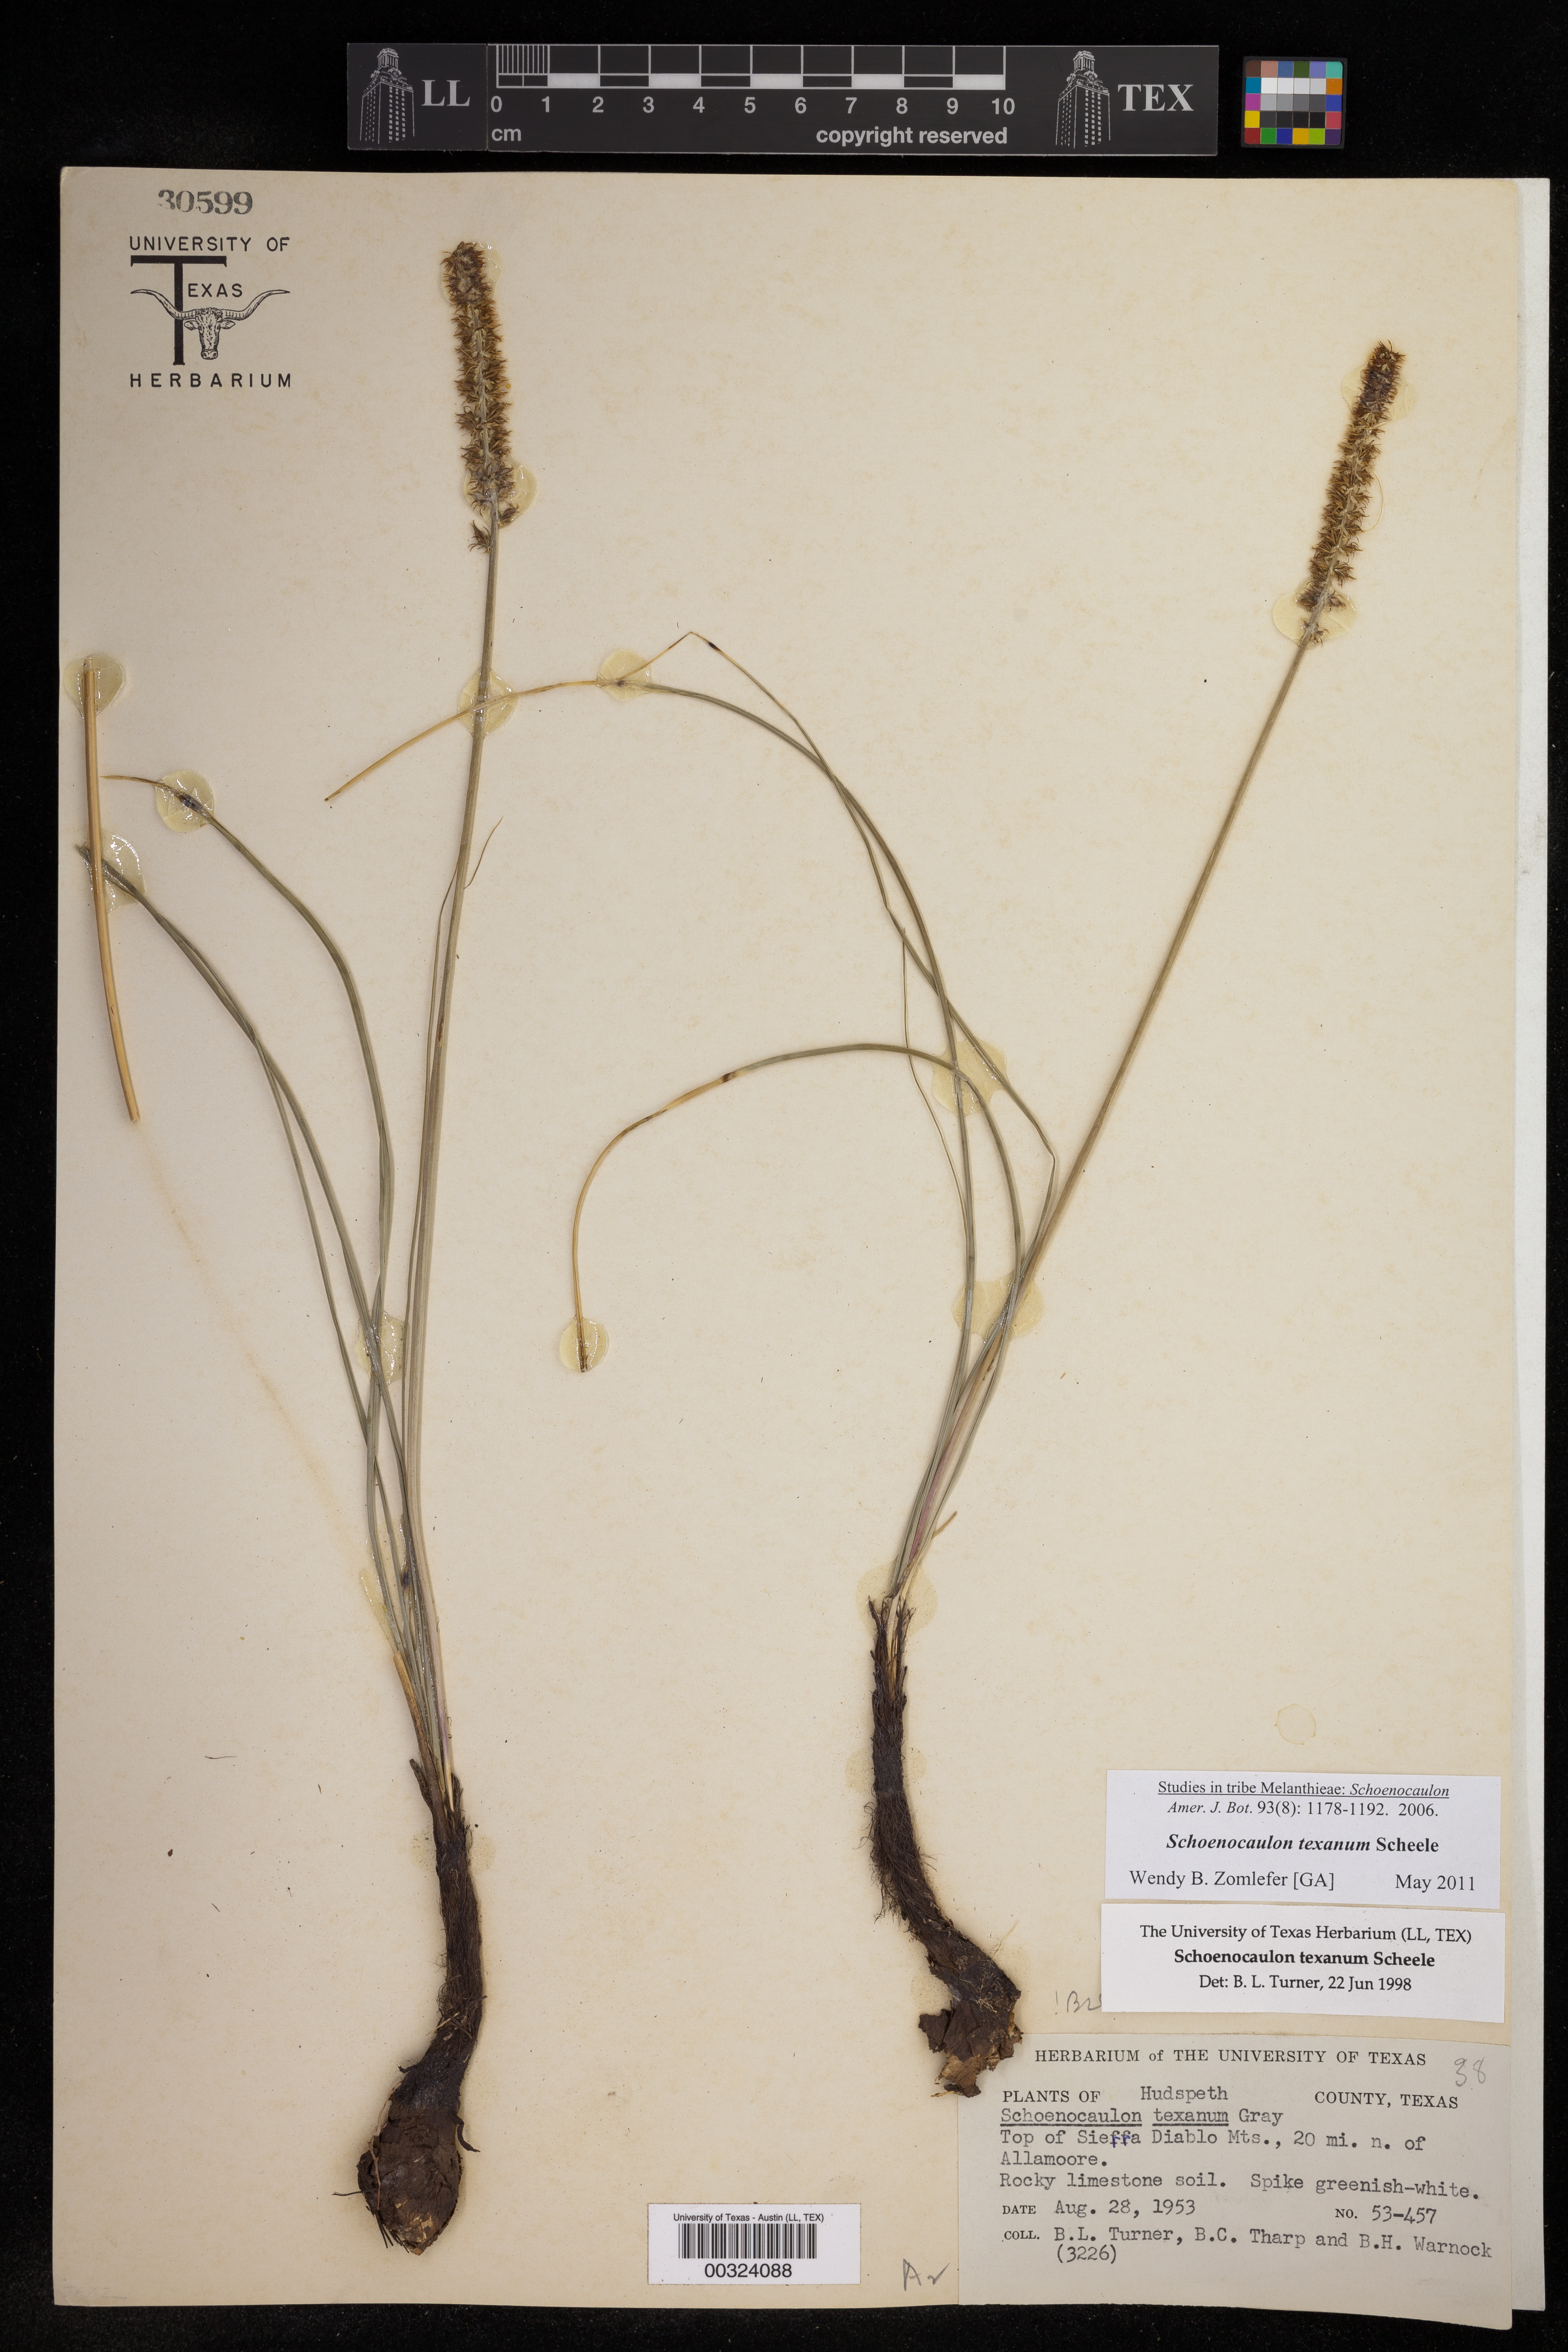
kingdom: Plantae
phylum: Tracheophyta
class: Liliopsida
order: Liliales
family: Melanthiaceae
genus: Schoenocaulon
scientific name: Schoenocaulon texanum
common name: Texas feather-shank
